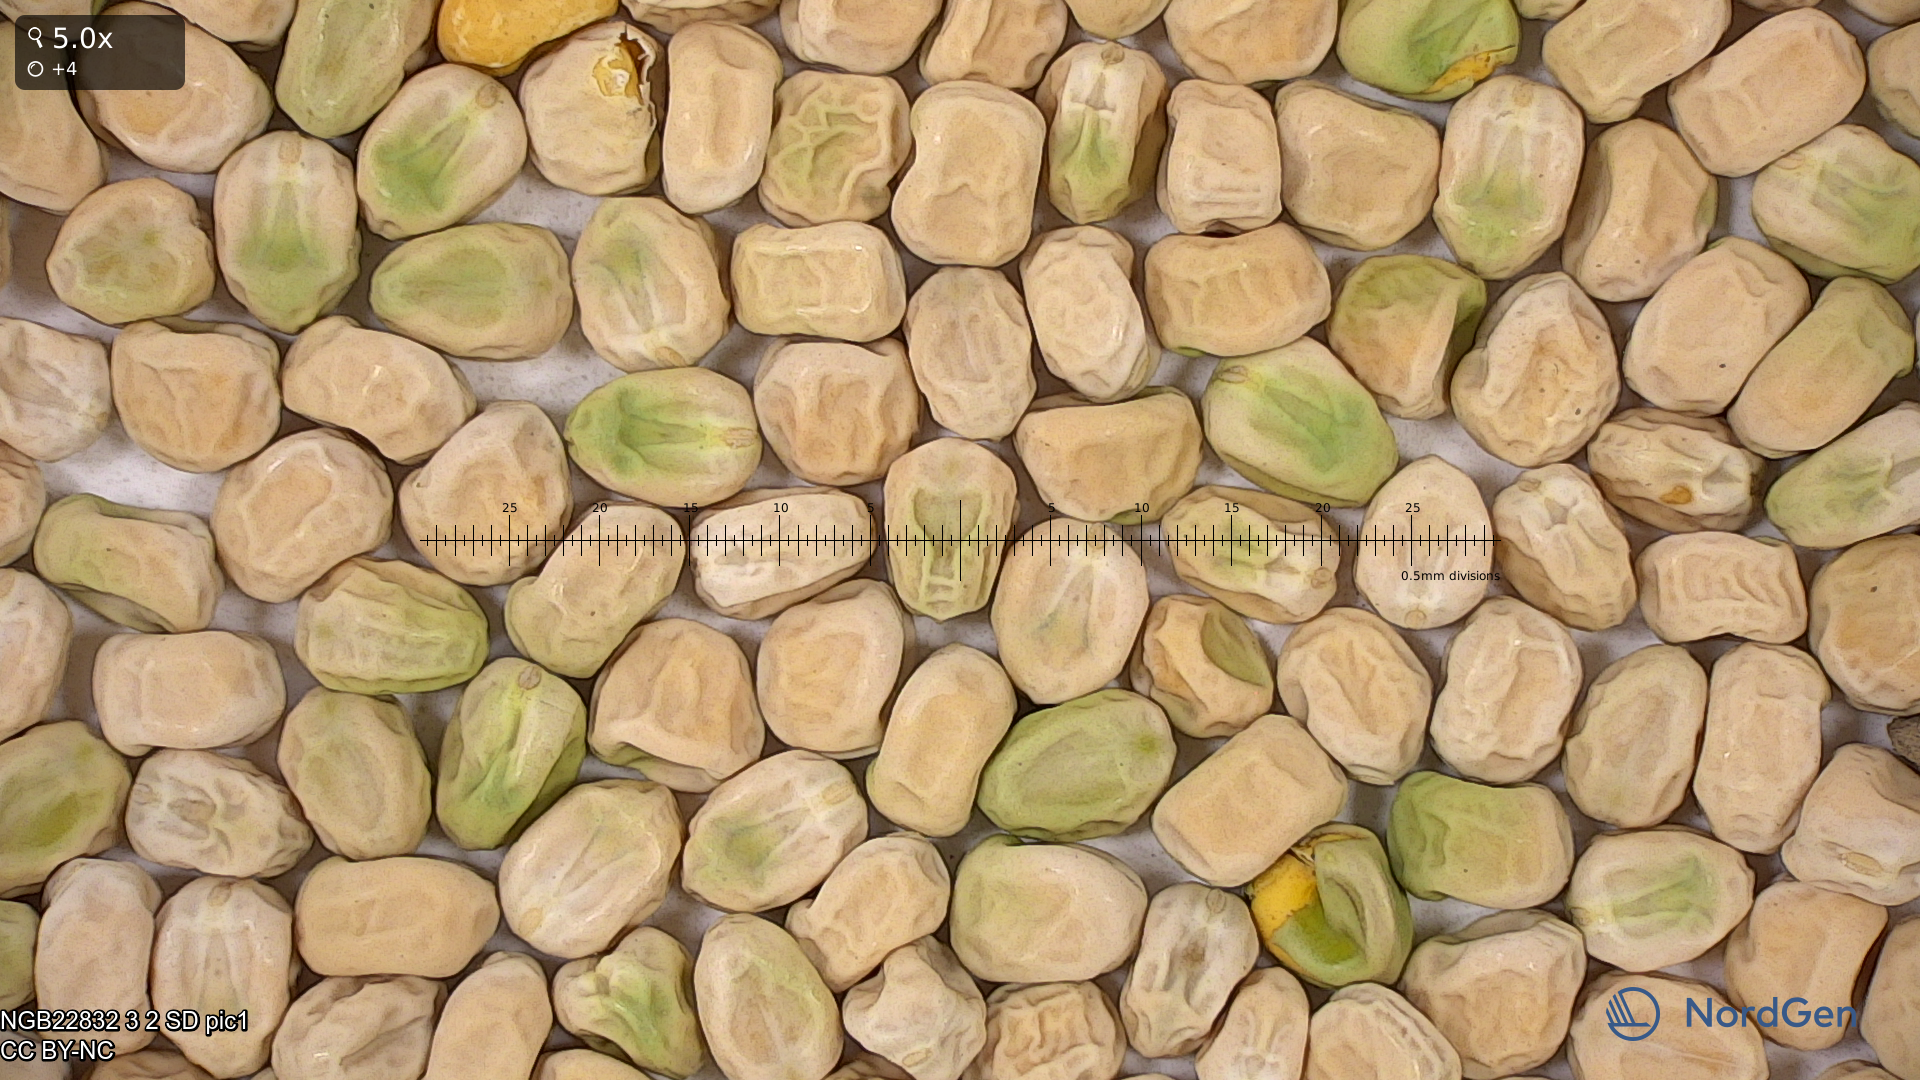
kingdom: Plantae
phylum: Tracheophyta
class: Magnoliopsida
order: Fabales
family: Fabaceae
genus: Lathyrus
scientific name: Lathyrus oleraceus
